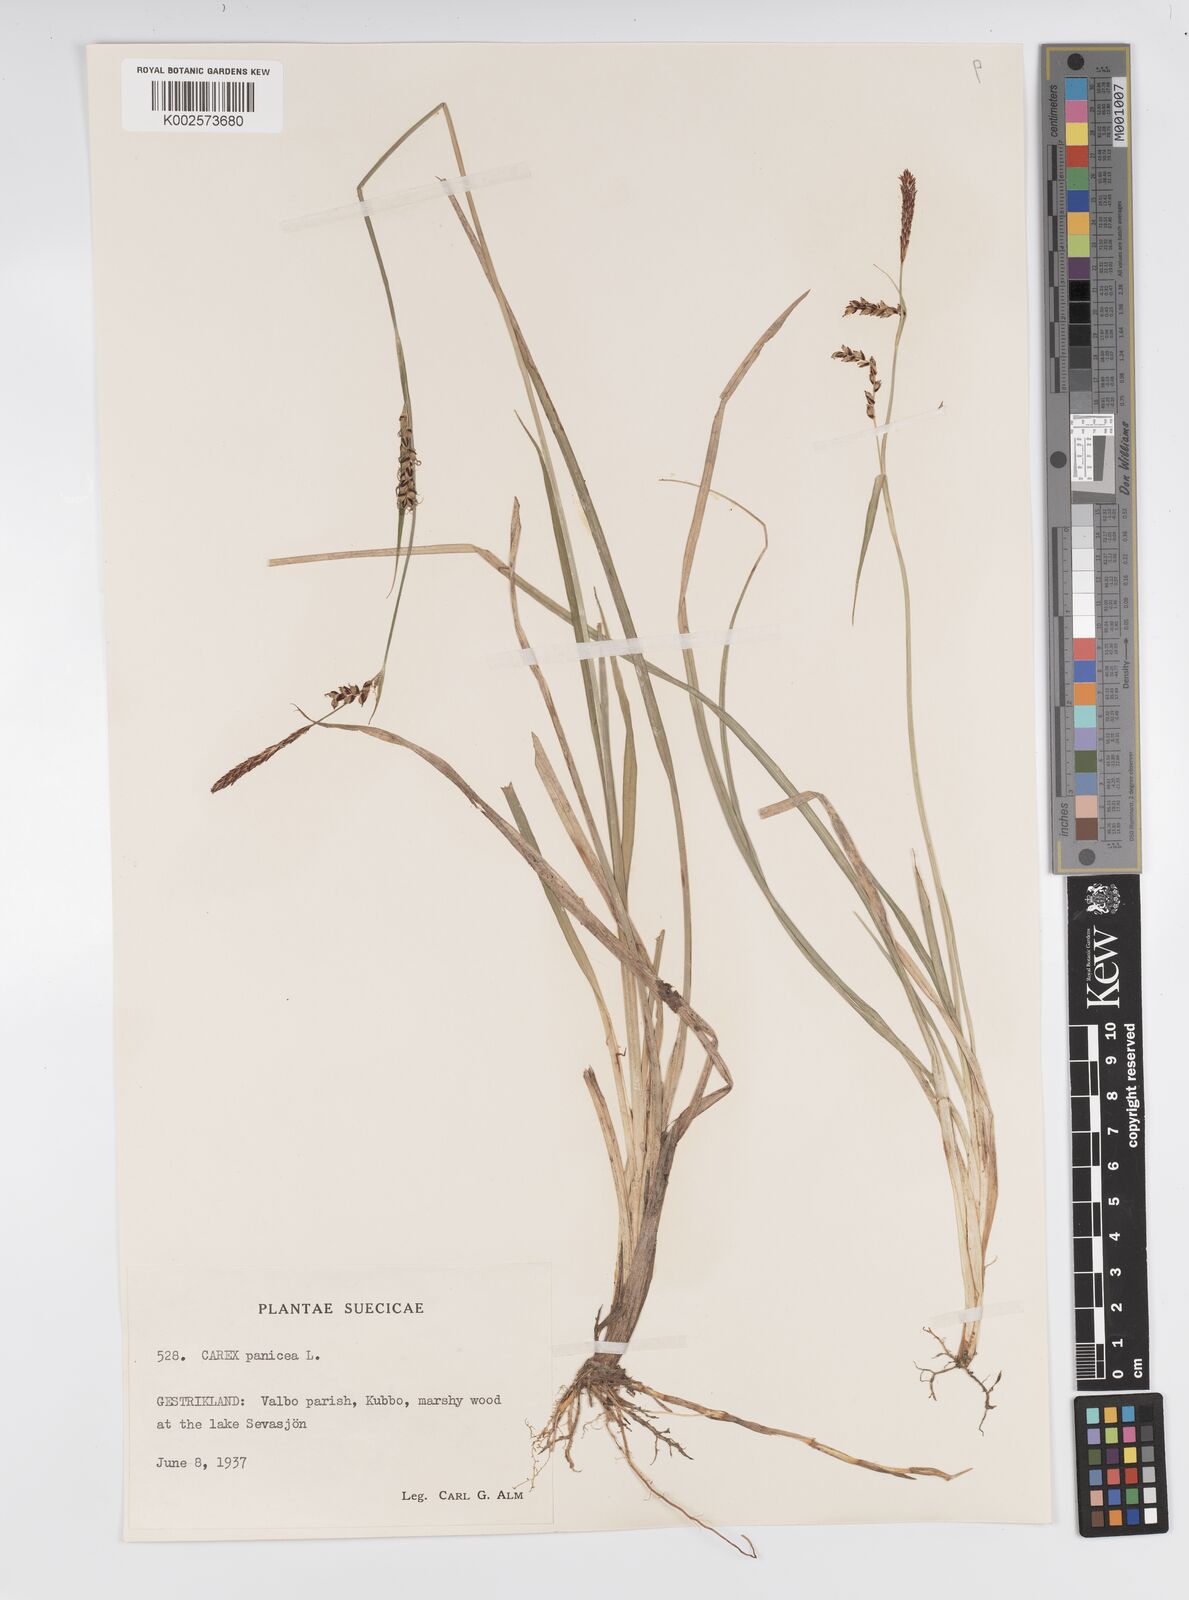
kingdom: Plantae
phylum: Tracheophyta
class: Liliopsida
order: Poales
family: Cyperaceae
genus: Carex
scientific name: Carex panicea
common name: Carnation sedge
